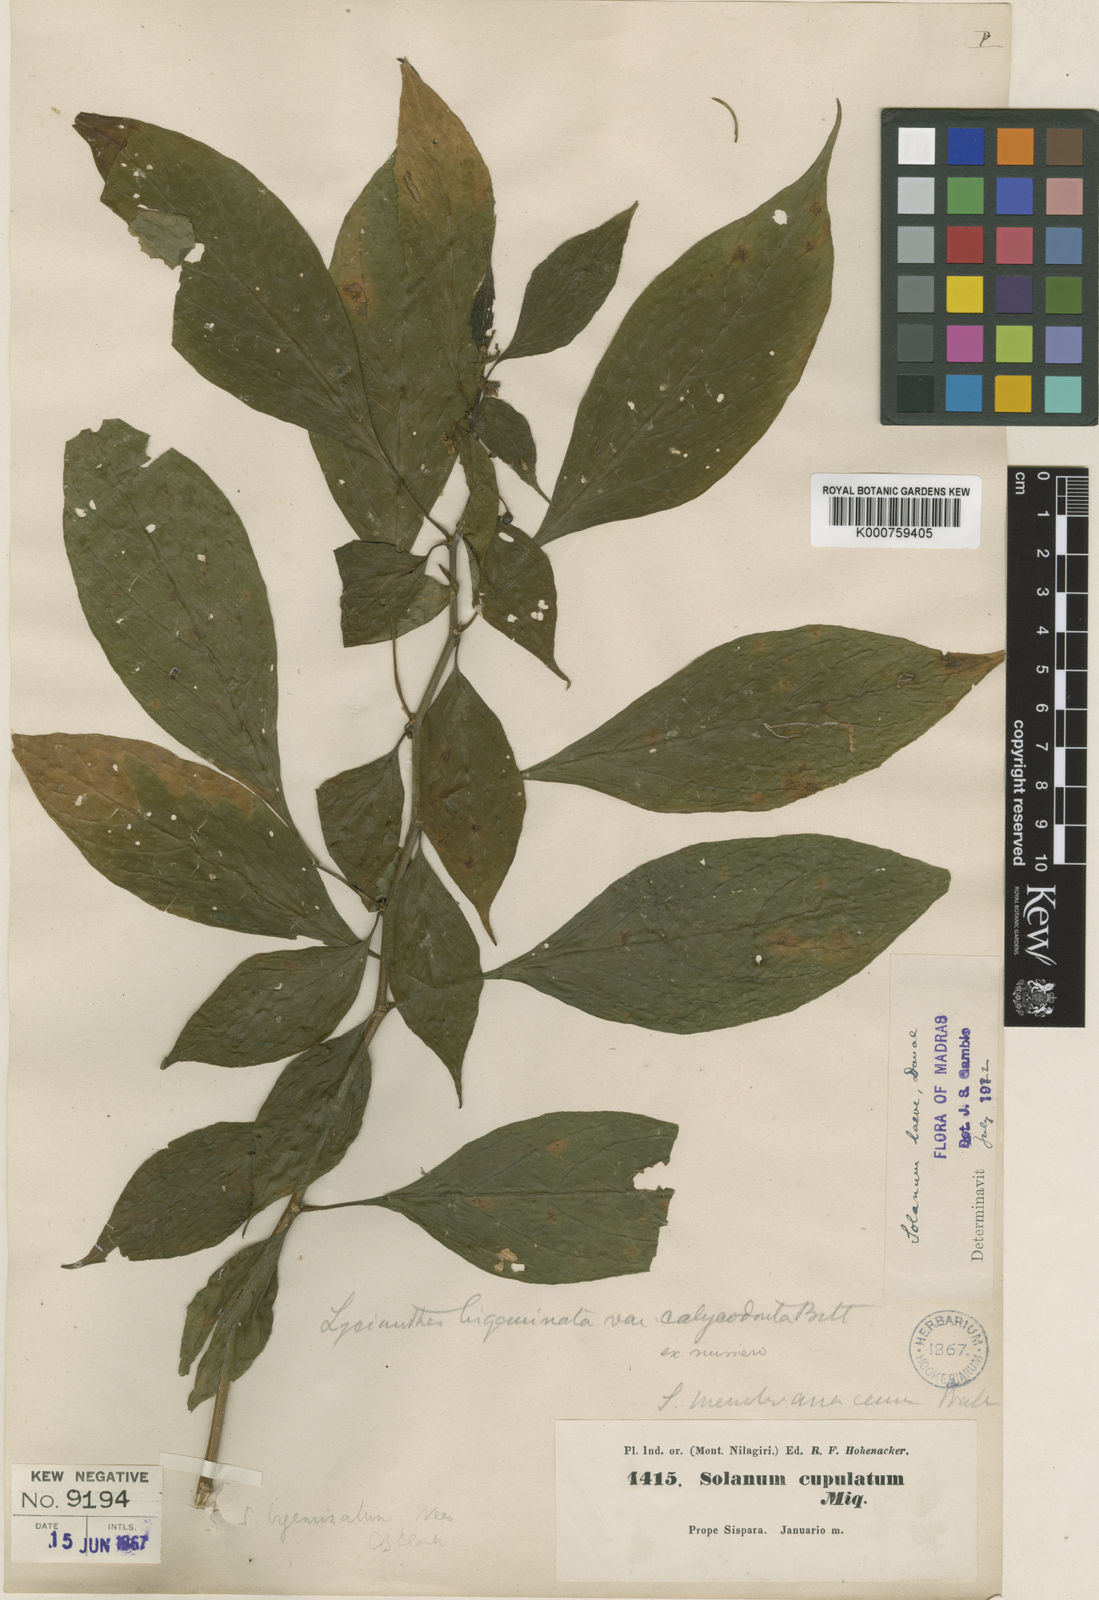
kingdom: Plantae
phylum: Tracheophyta
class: Magnoliopsida
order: Solanales
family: Solanaceae
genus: Lycianthes
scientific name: Lycianthes bigeminata
